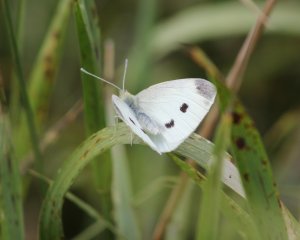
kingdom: Animalia
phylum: Arthropoda
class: Insecta
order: Lepidoptera
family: Pieridae
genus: Pieris
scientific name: Pieris rapae
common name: Cabbage White
